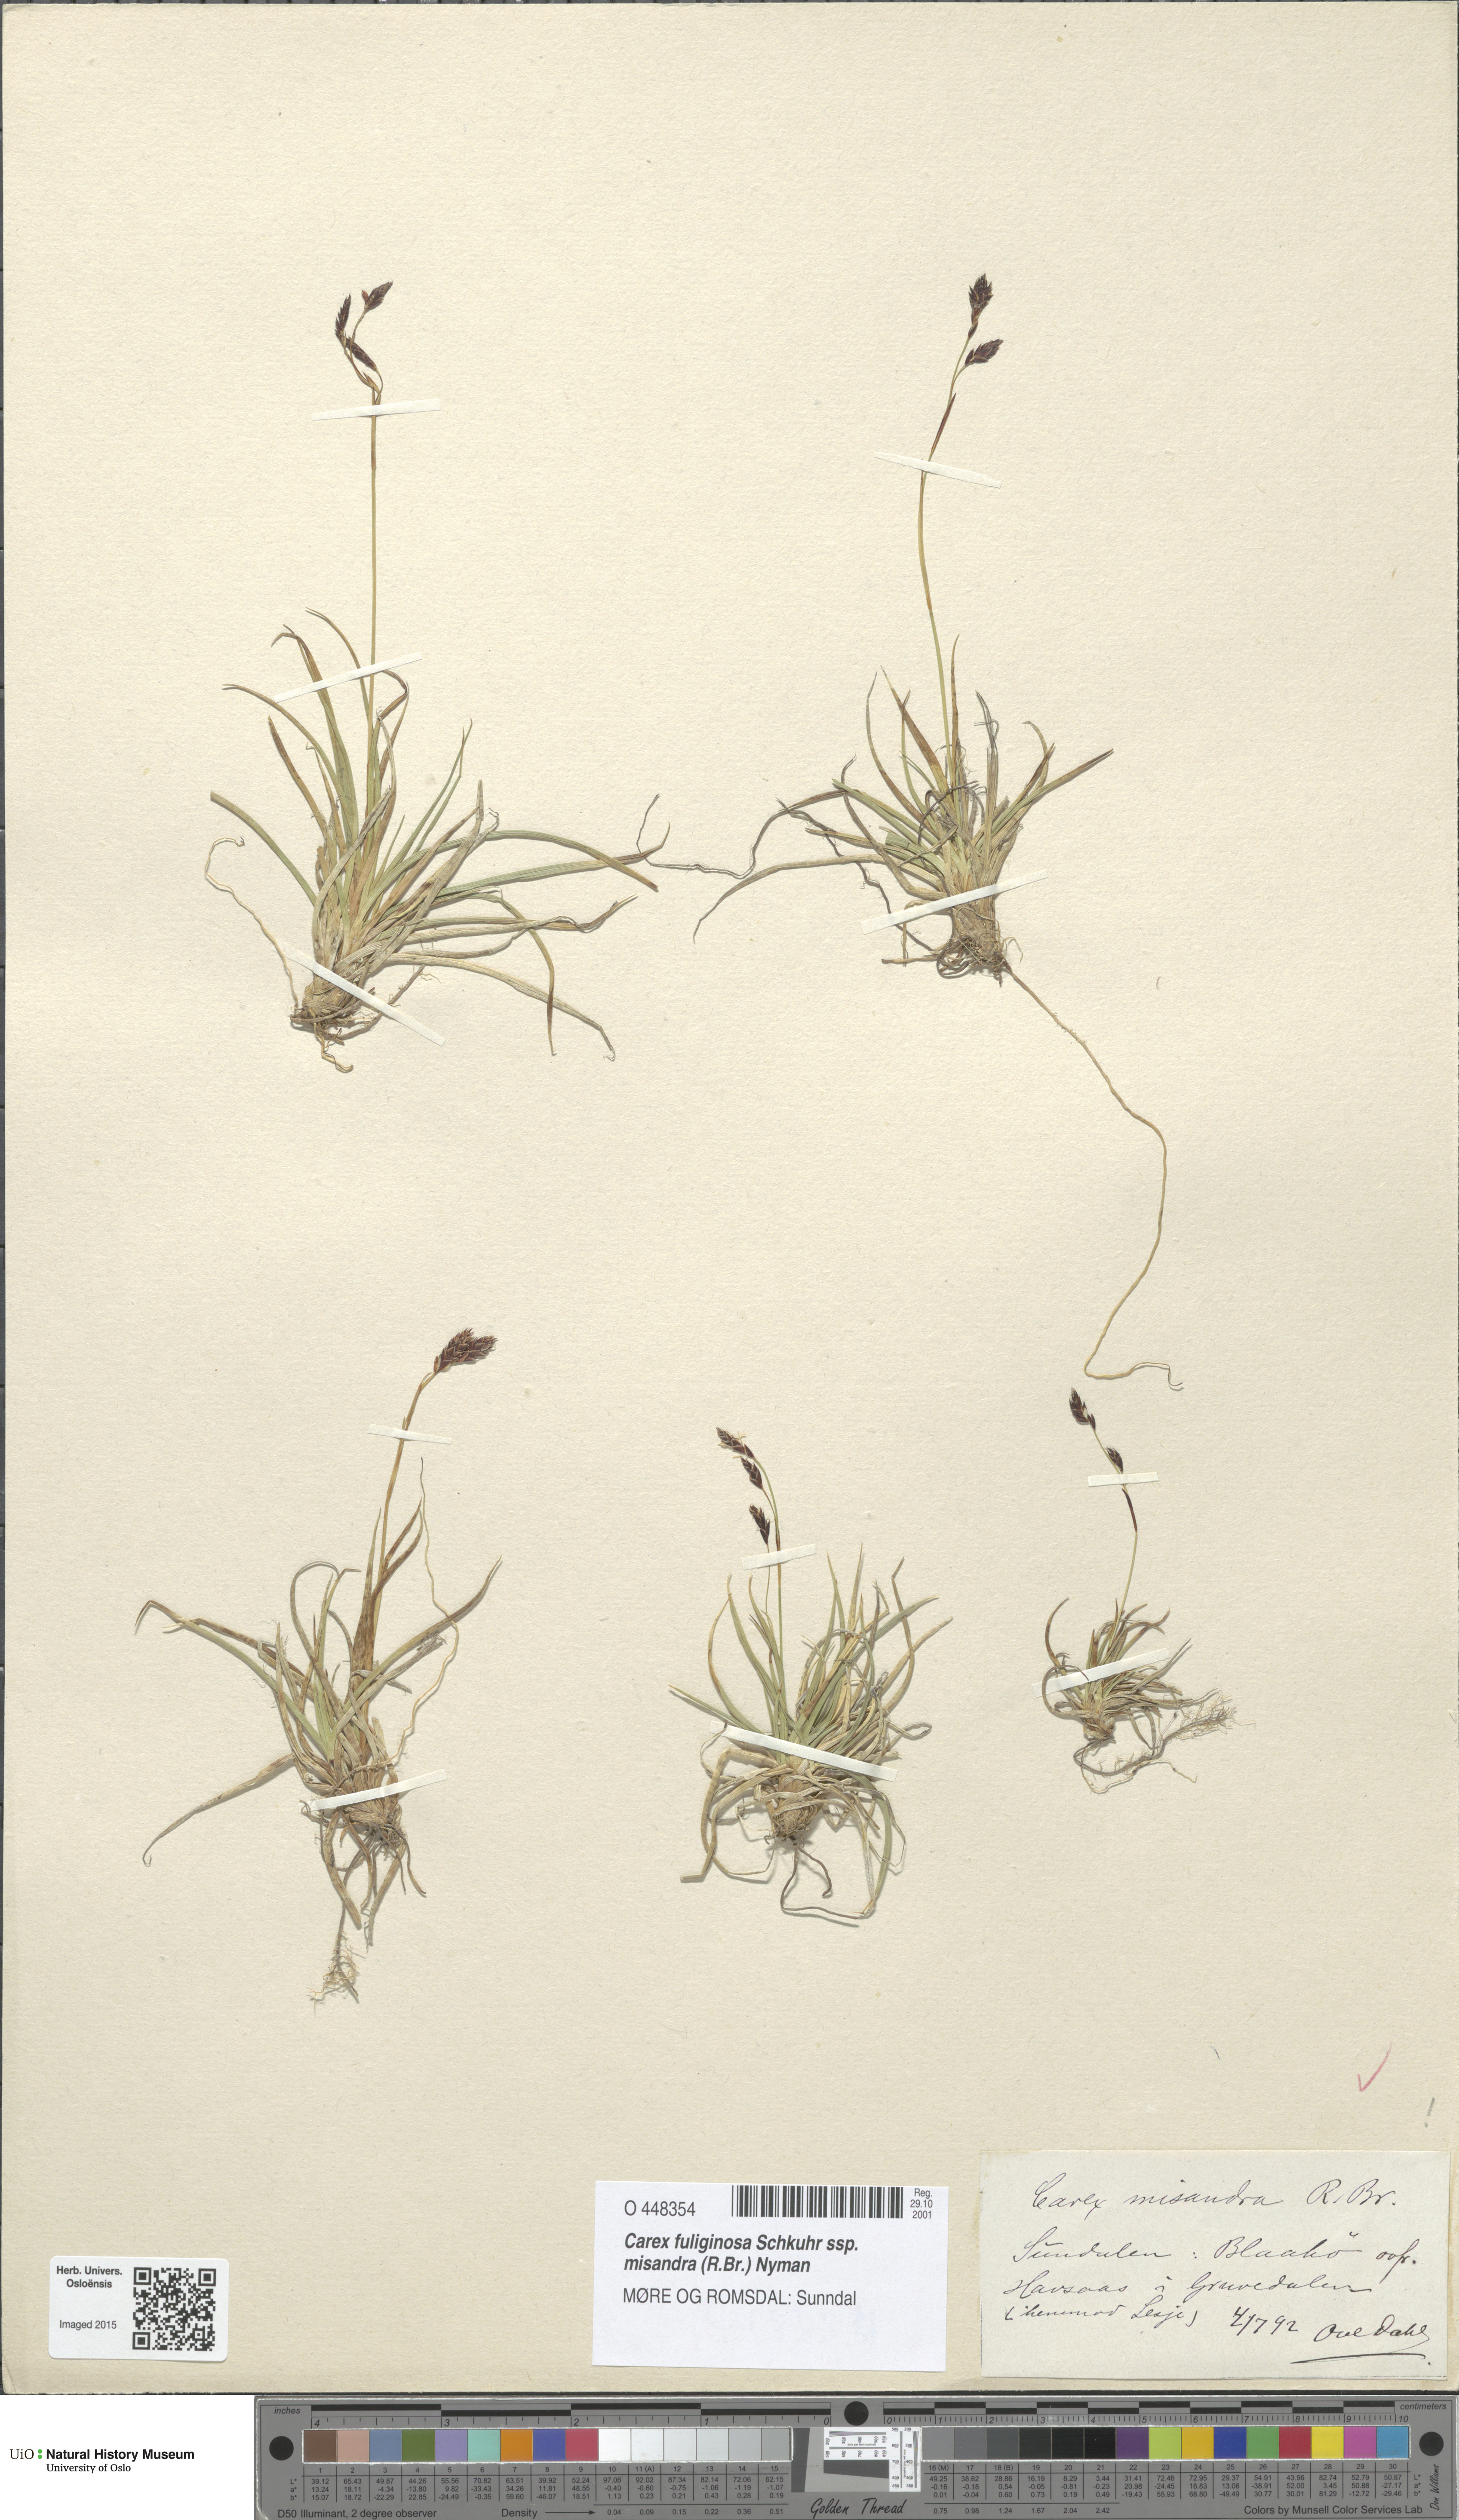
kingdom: Plantae
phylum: Tracheophyta
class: Liliopsida
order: Poales
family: Cyperaceae
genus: Carex
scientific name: Carex fuliginosa
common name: Few-flowered sedge
